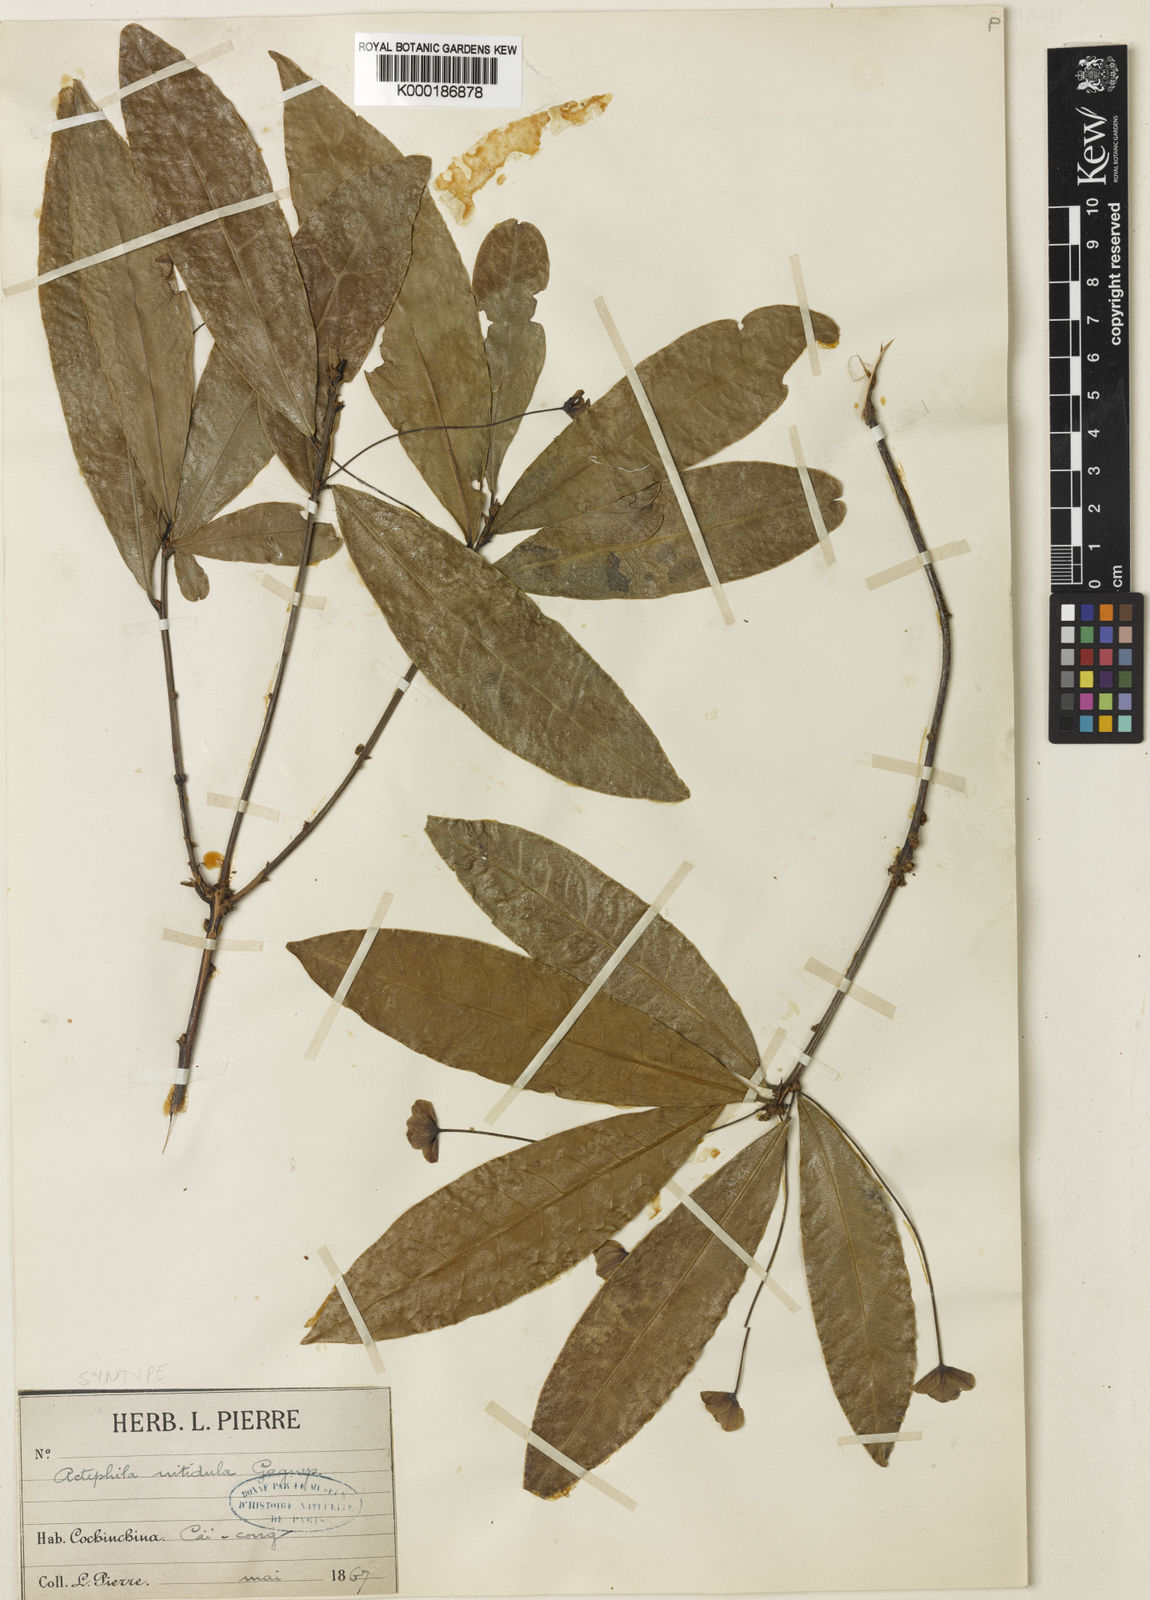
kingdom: Plantae
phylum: Tracheophyta
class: Magnoliopsida
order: Malpighiales
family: Phyllanthaceae
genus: Actephila
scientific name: Actephila nitidula
